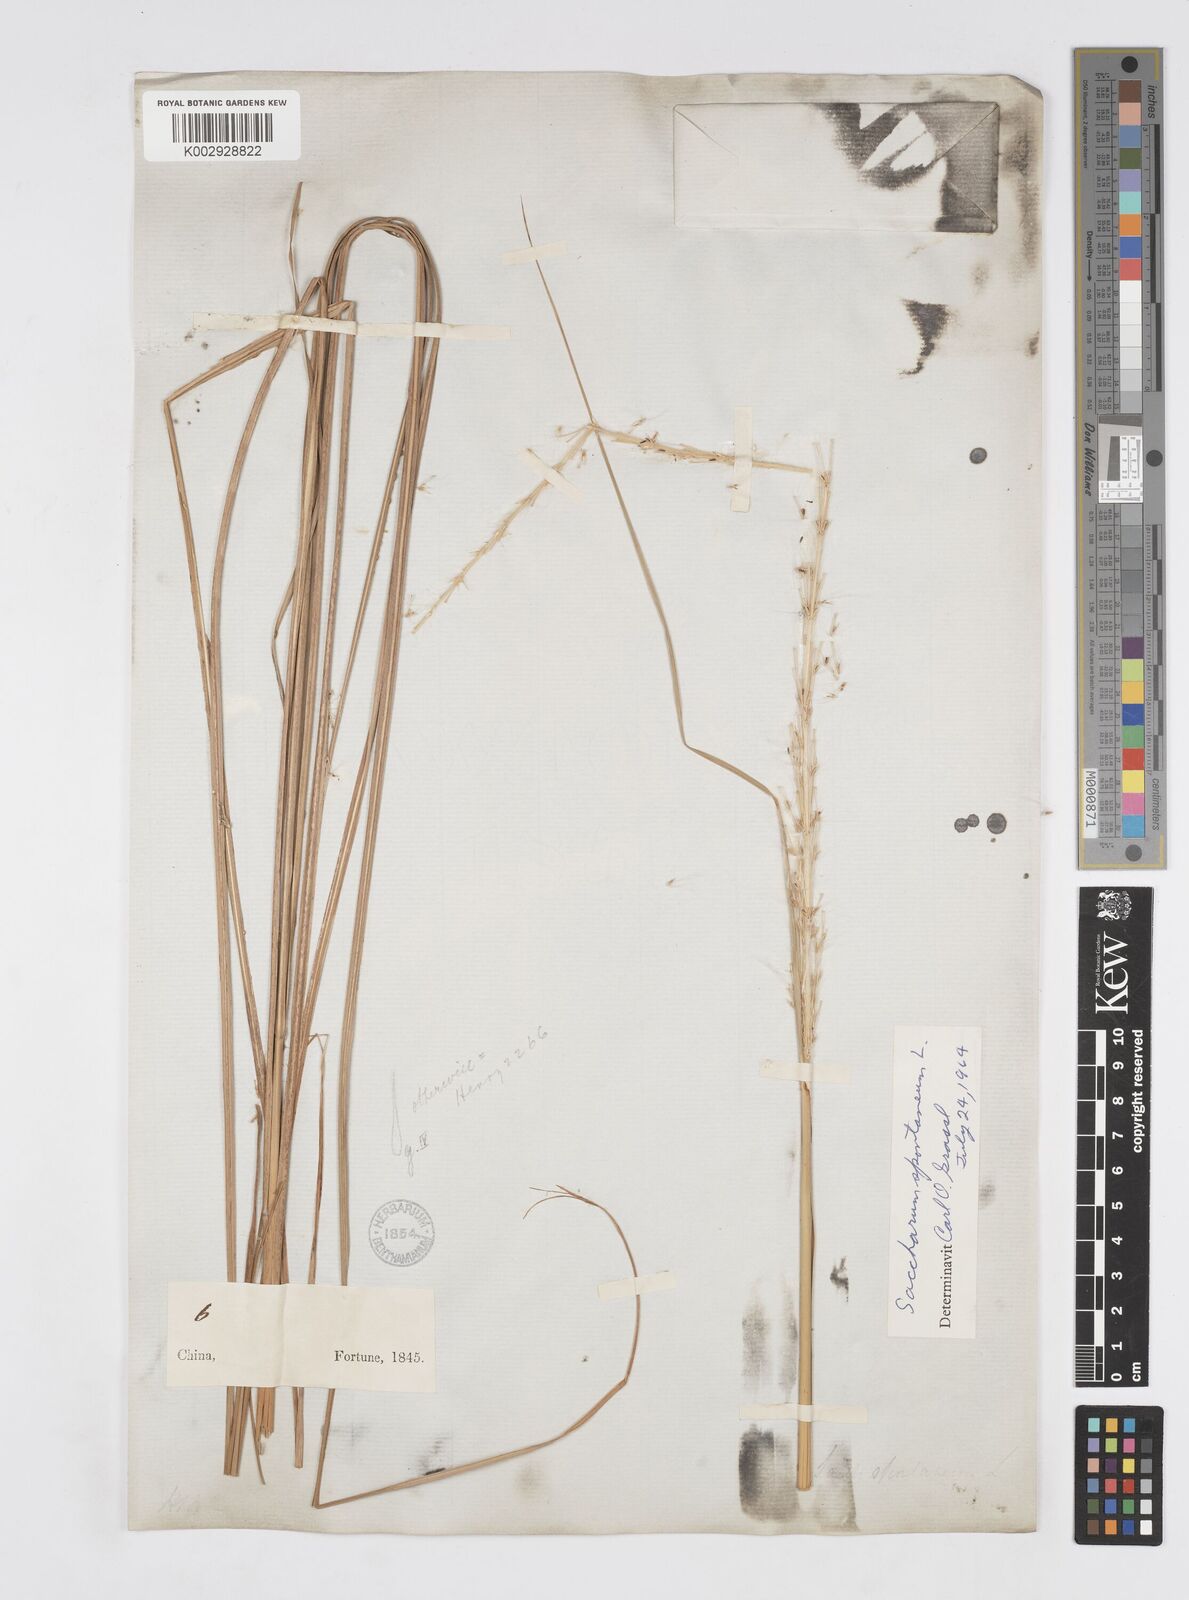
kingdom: Plantae
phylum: Tracheophyta
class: Liliopsida
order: Poales
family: Poaceae
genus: Saccharum
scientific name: Saccharum spontaneum
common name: Wild sugarcane
